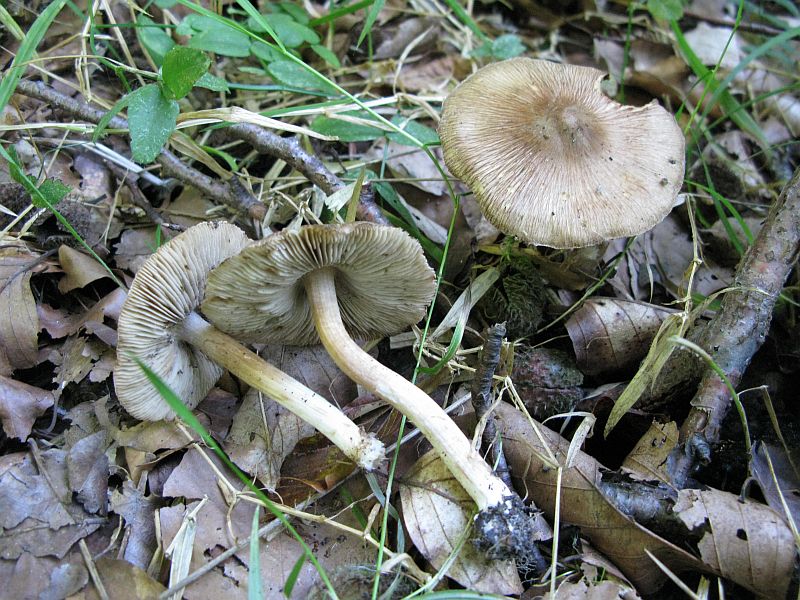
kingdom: Fungi
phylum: Basidiomycota
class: Agaricomycetes
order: Agaricales
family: Inocybaceae
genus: Inosperma
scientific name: Inosperma
